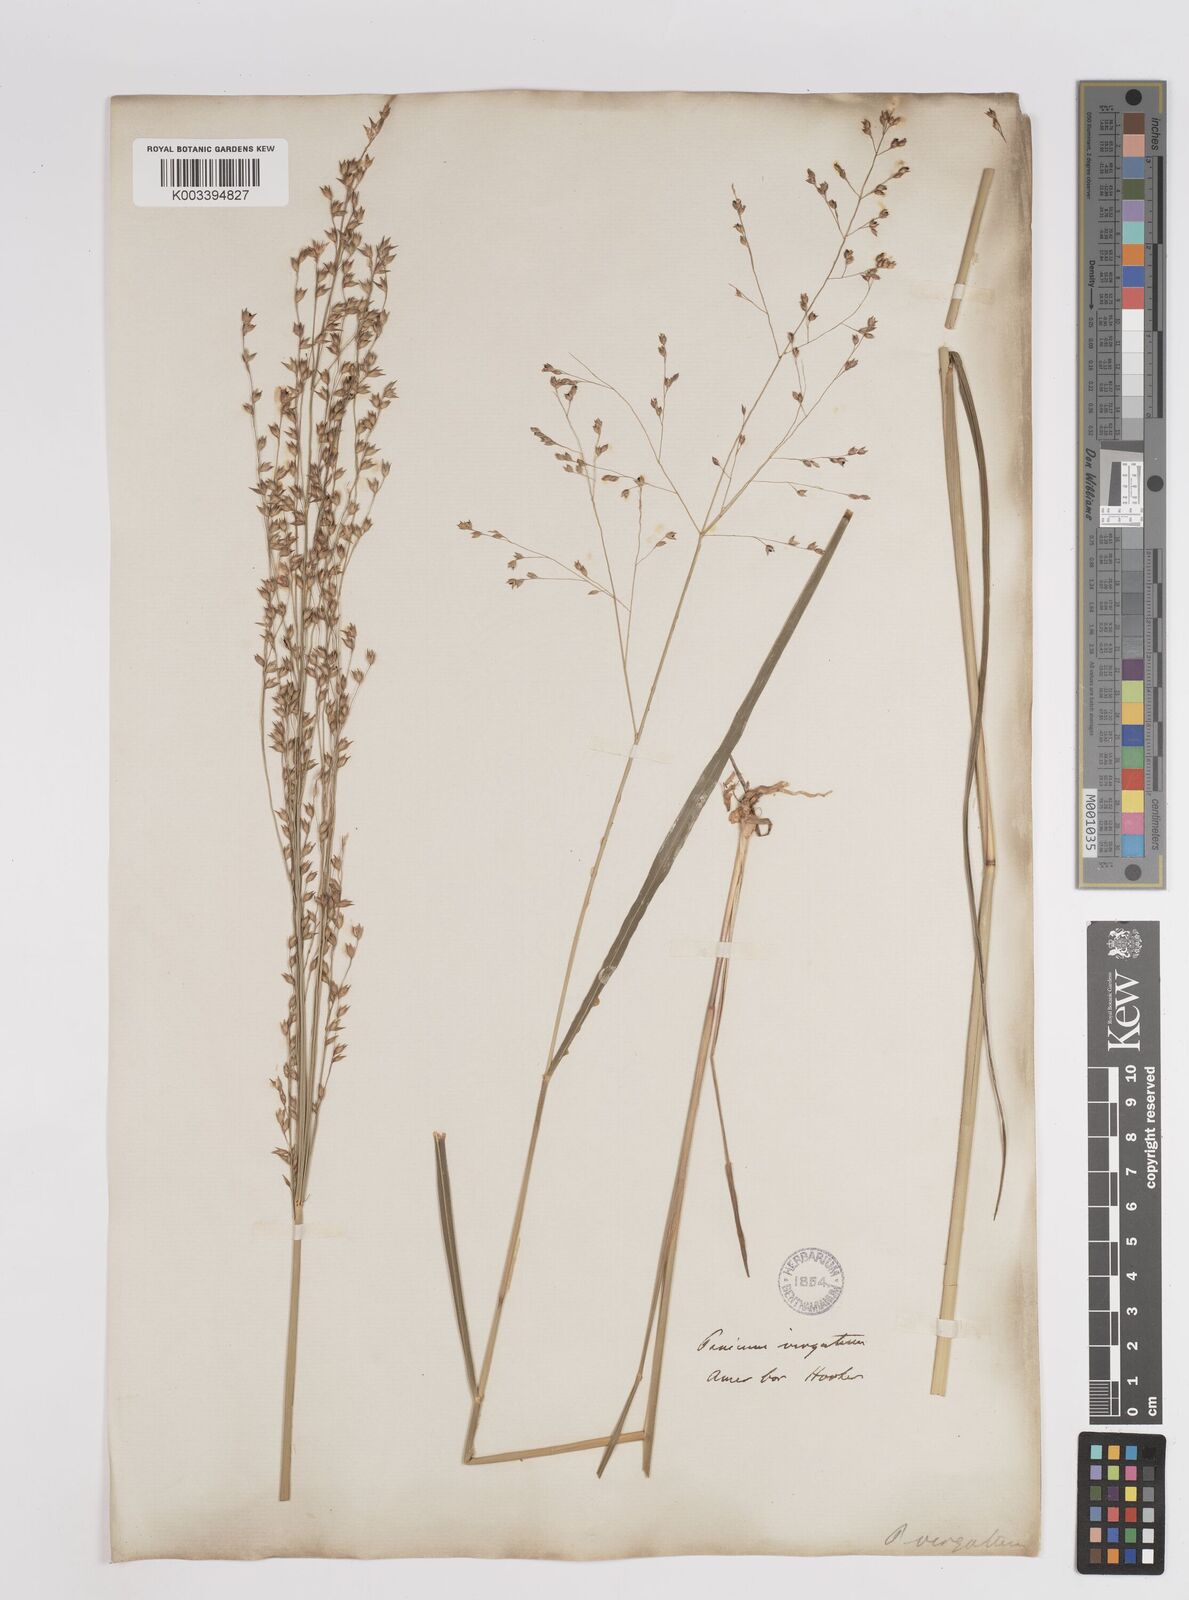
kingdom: Plantae
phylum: Tracheophyta
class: Liliopsida
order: Poales
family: Poaceae
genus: Panicum
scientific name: Panicum virgatum
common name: Switchgrass
